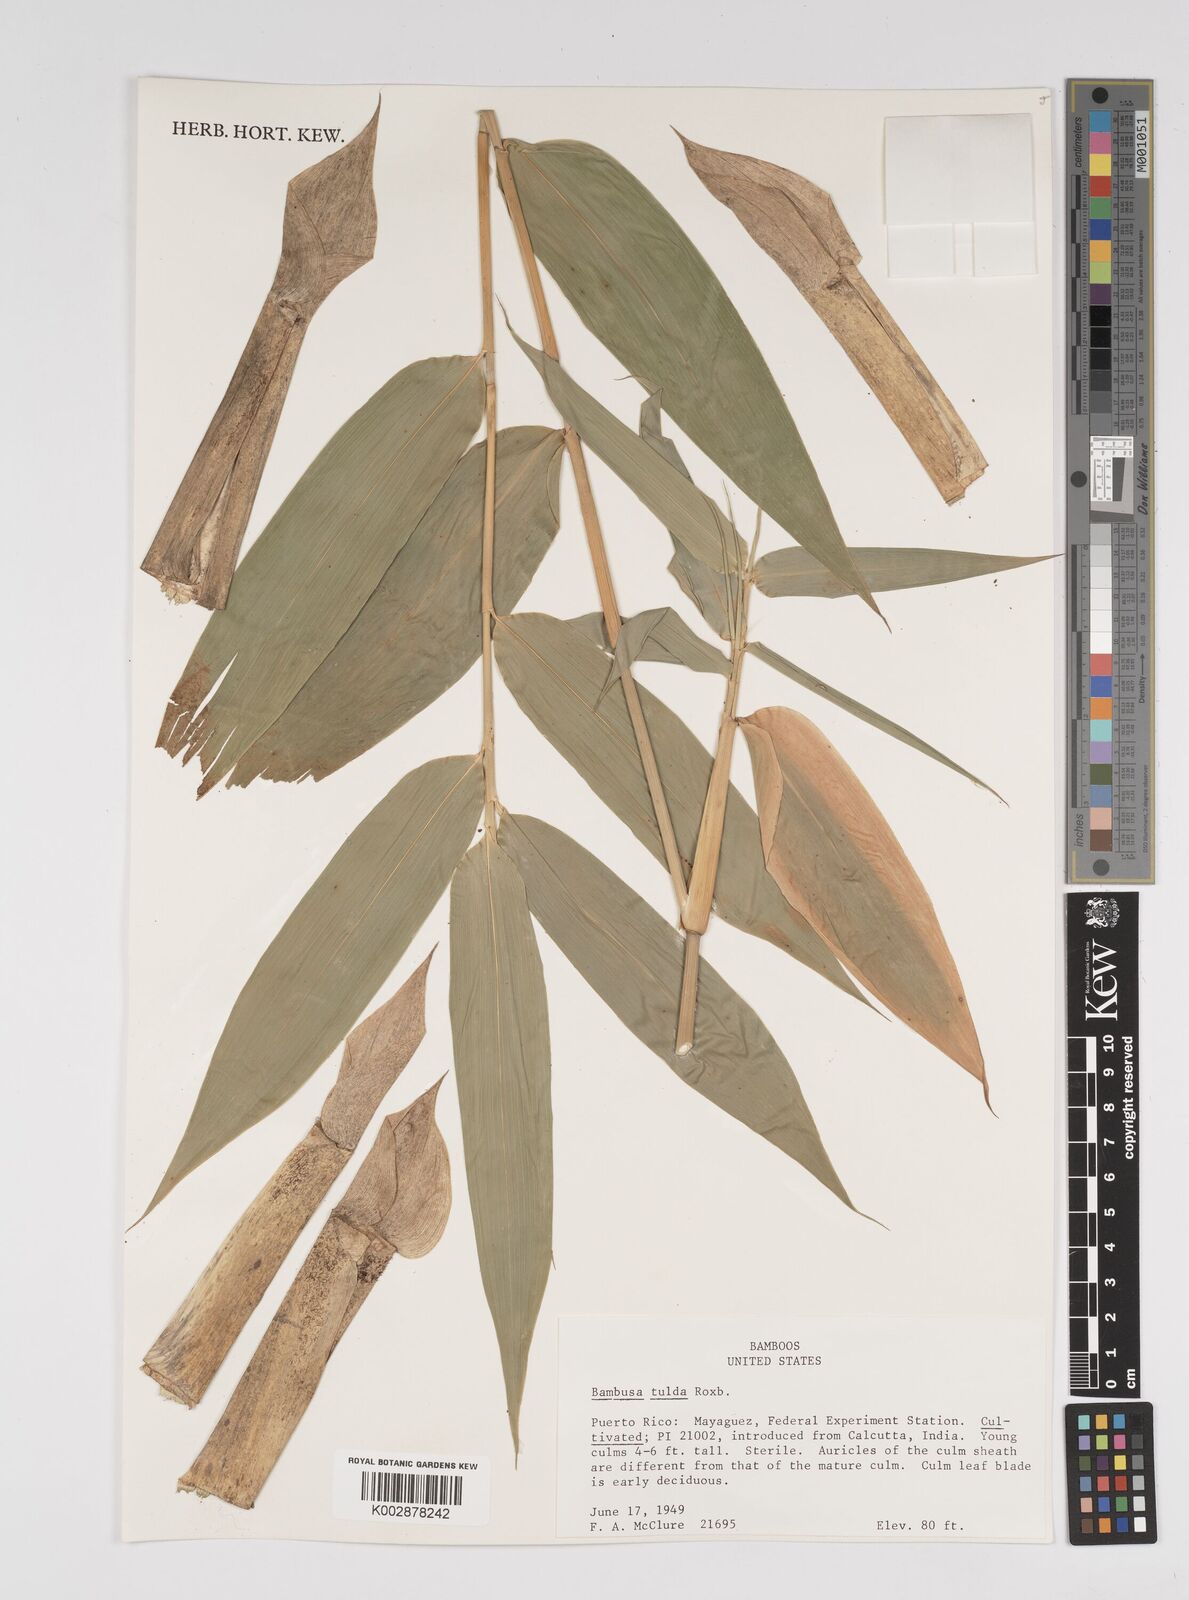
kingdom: Plantae
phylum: Tracheophyta
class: Liliopsida
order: Poales
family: Poaceae
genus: Bambusa
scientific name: Bambusa tuldoides
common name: Verdant bamboo
